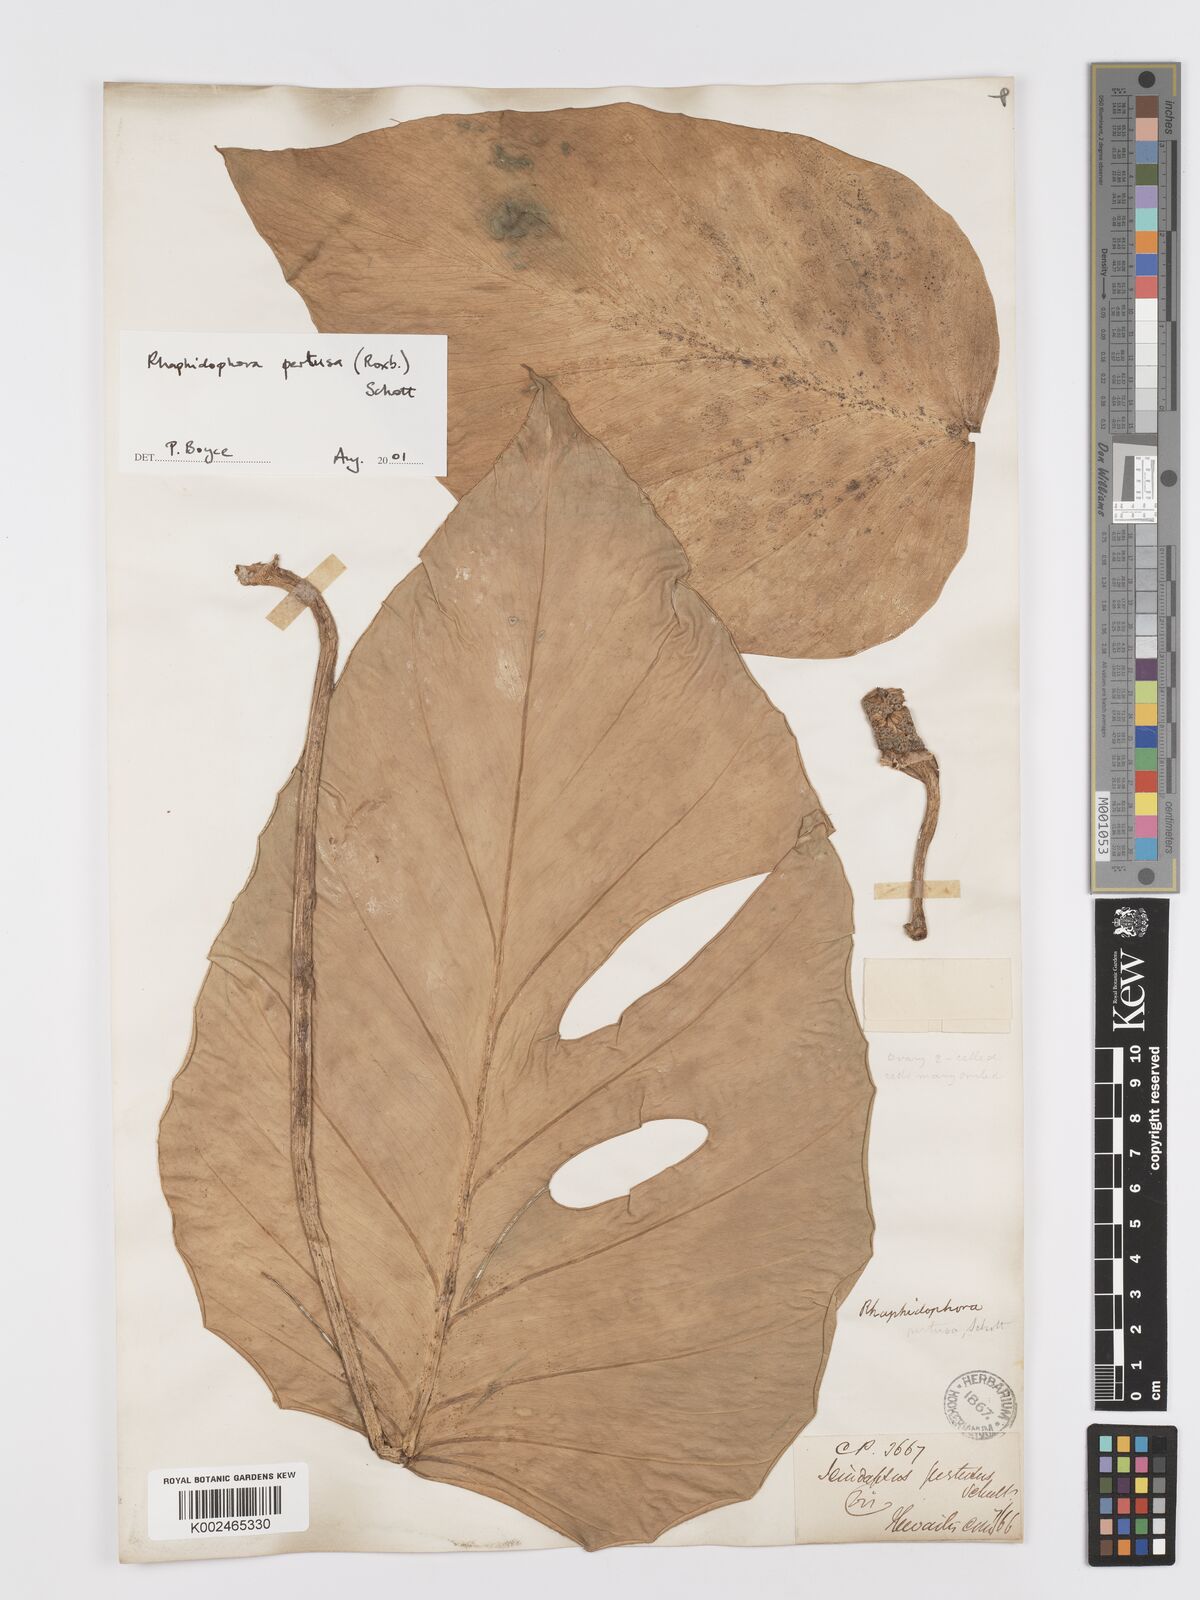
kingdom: Plantae
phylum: Tracheophyta
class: Liliopsida
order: Alismatales
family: Araceae
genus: Rhaphidophora
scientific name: Rhaphidophora pertusa
